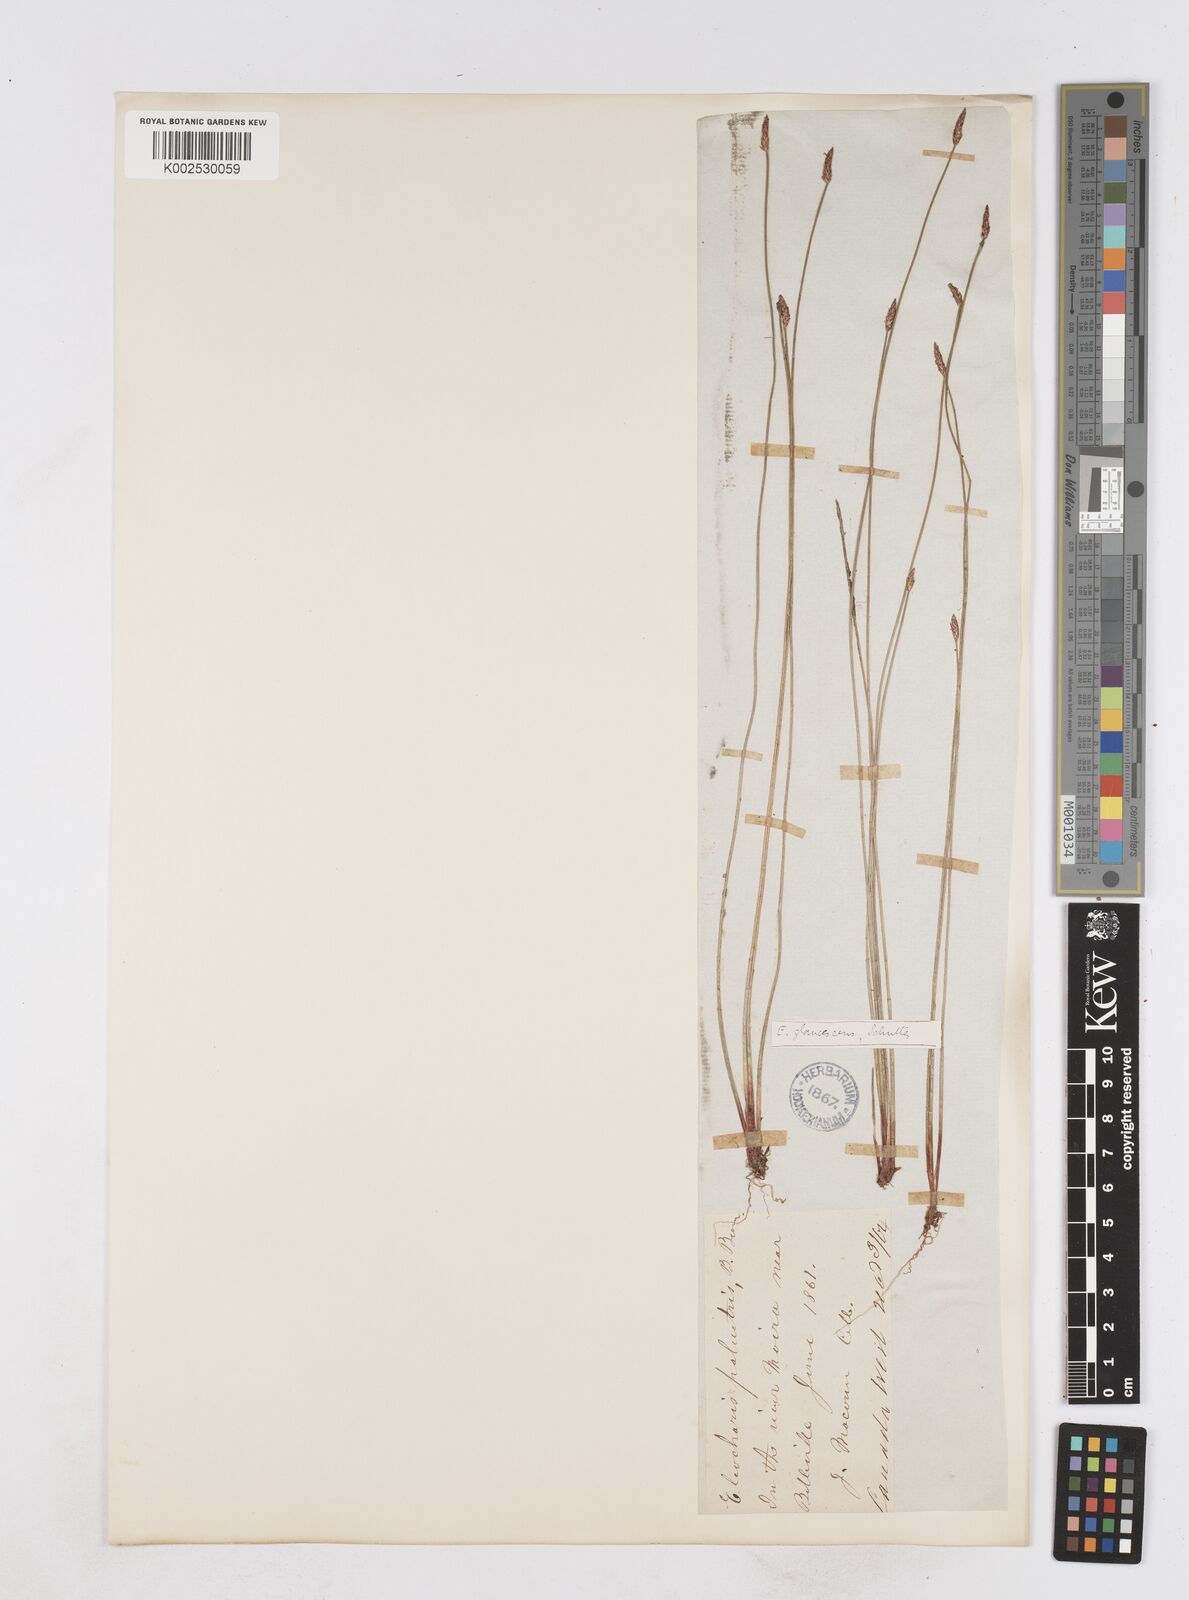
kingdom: Plantae
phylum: Tracheophyta
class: Liliopsida
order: Poales
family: Cyperaceae
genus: Eleocharis
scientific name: Eleocharis palustris
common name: Common spike-rush
